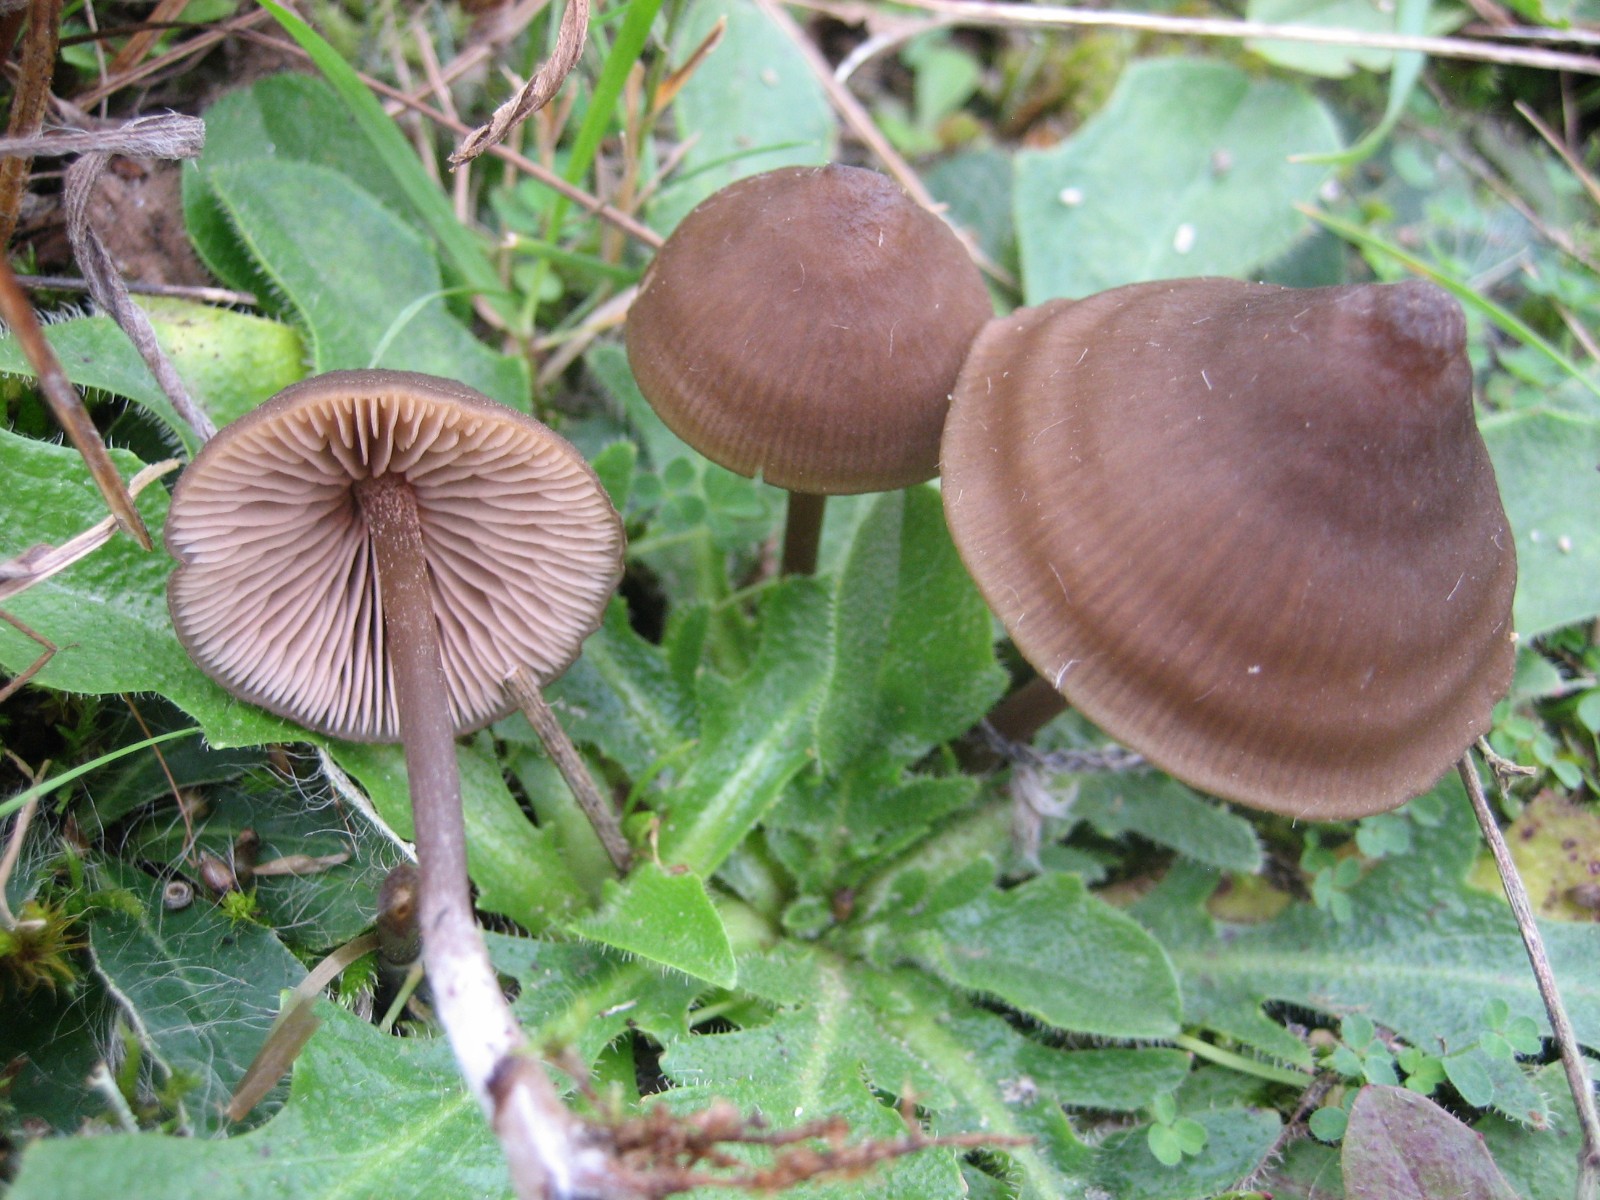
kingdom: Fungi
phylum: Basidiomycota
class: Agaricomycetes
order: Agaricales
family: Entolomataceae
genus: Entoloma
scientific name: Entoloma
